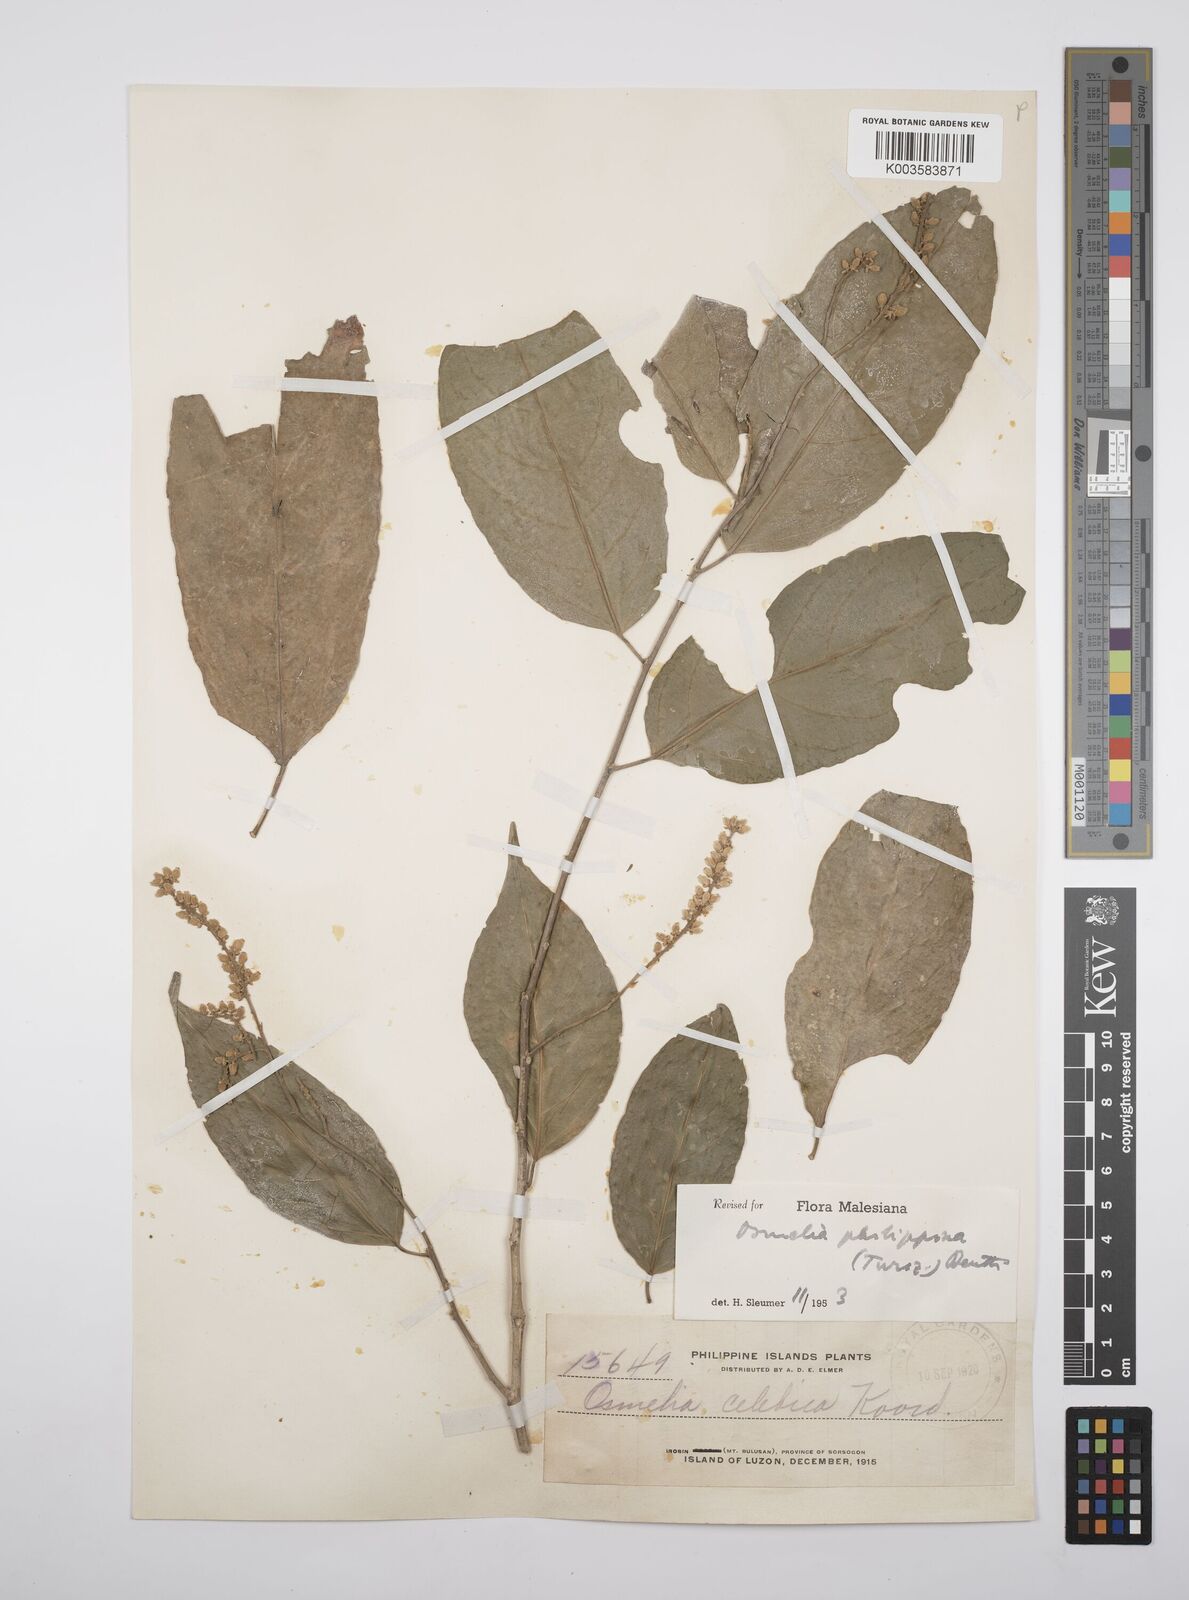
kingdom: Plantae
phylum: Tracheophyta
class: Magnoliopsida
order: Malpighiales
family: Salicaceae
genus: Osmelia
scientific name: Osmelia philippina
